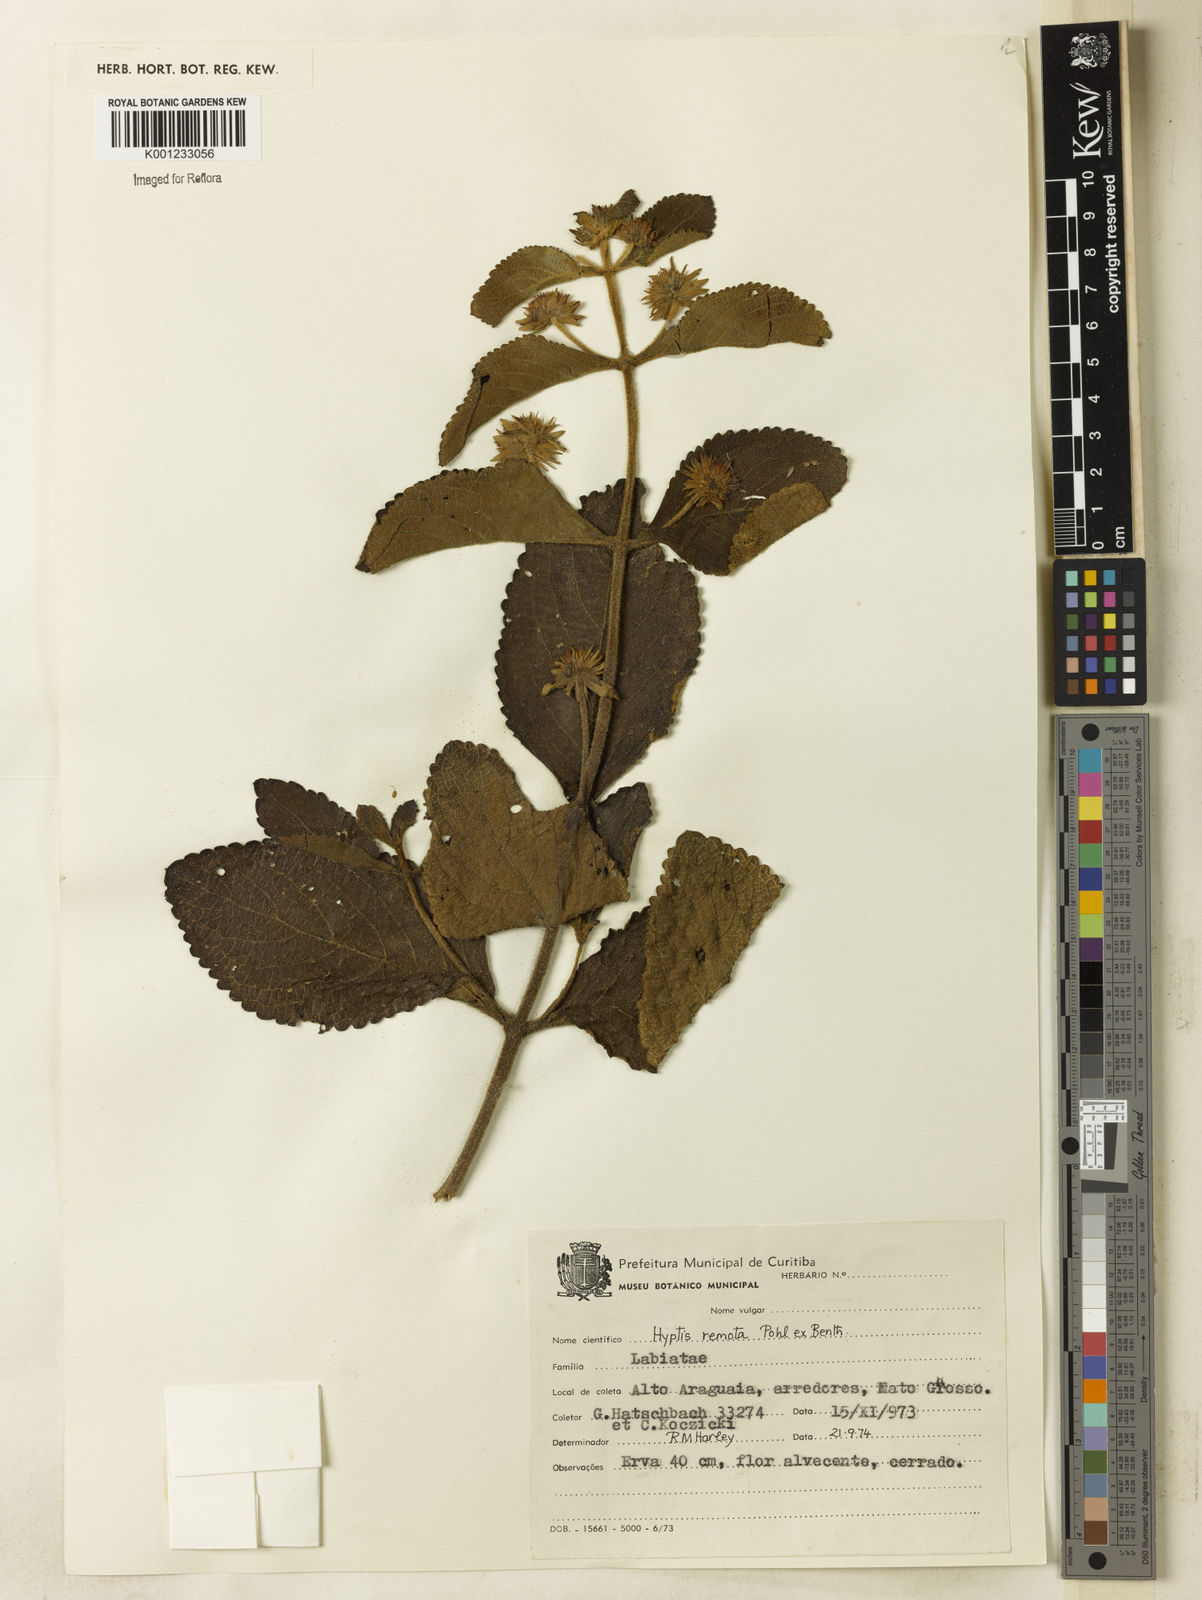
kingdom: Plantae
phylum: Tracheophyta
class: Magnoliopsida
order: Lamiales
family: Lamiaceae
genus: Hyptis
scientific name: Hyptis remota
